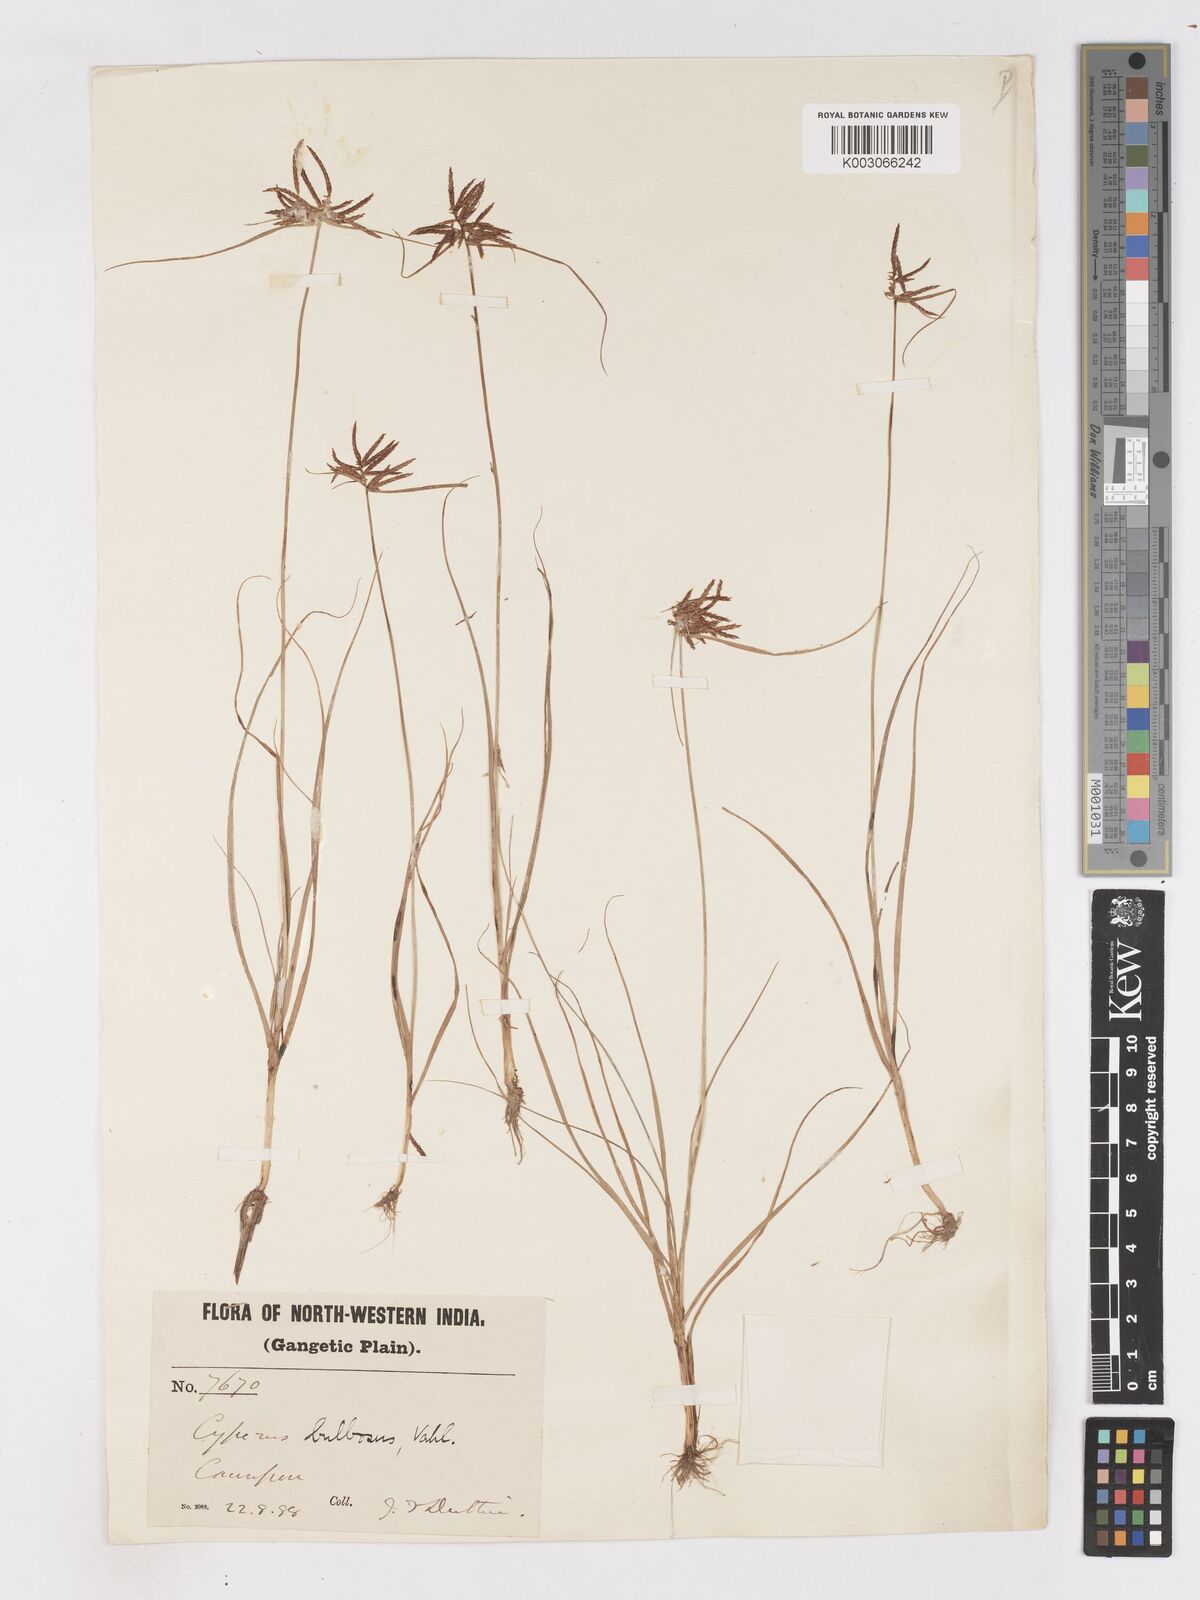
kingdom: Plantae
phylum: Tracheophyta
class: Liliopsida
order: Poales
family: Cyperaceae
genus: Cyperus
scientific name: Cyperus bulbosus
